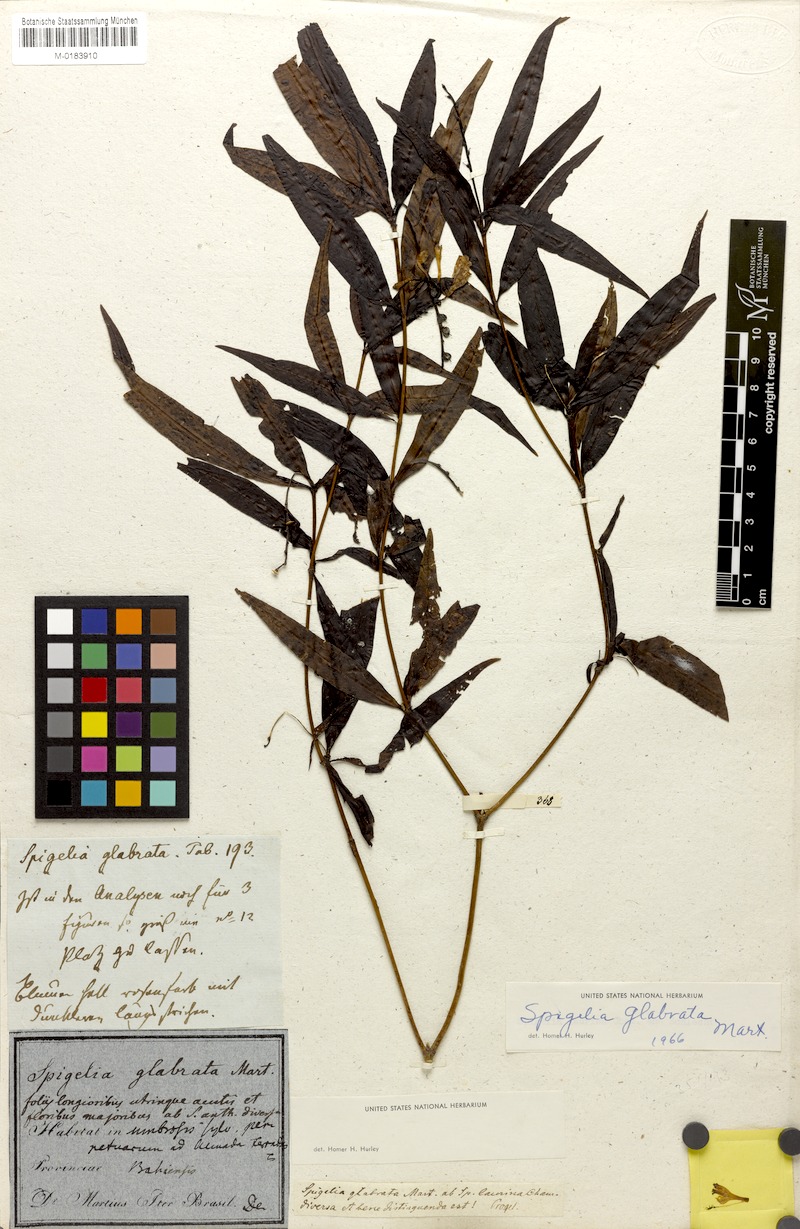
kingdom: Plantae
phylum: Tracheophyta
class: Magnoliopsida
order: Gentianales
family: Loganiaceae
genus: Spigelia
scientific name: Spigelia glabrata
